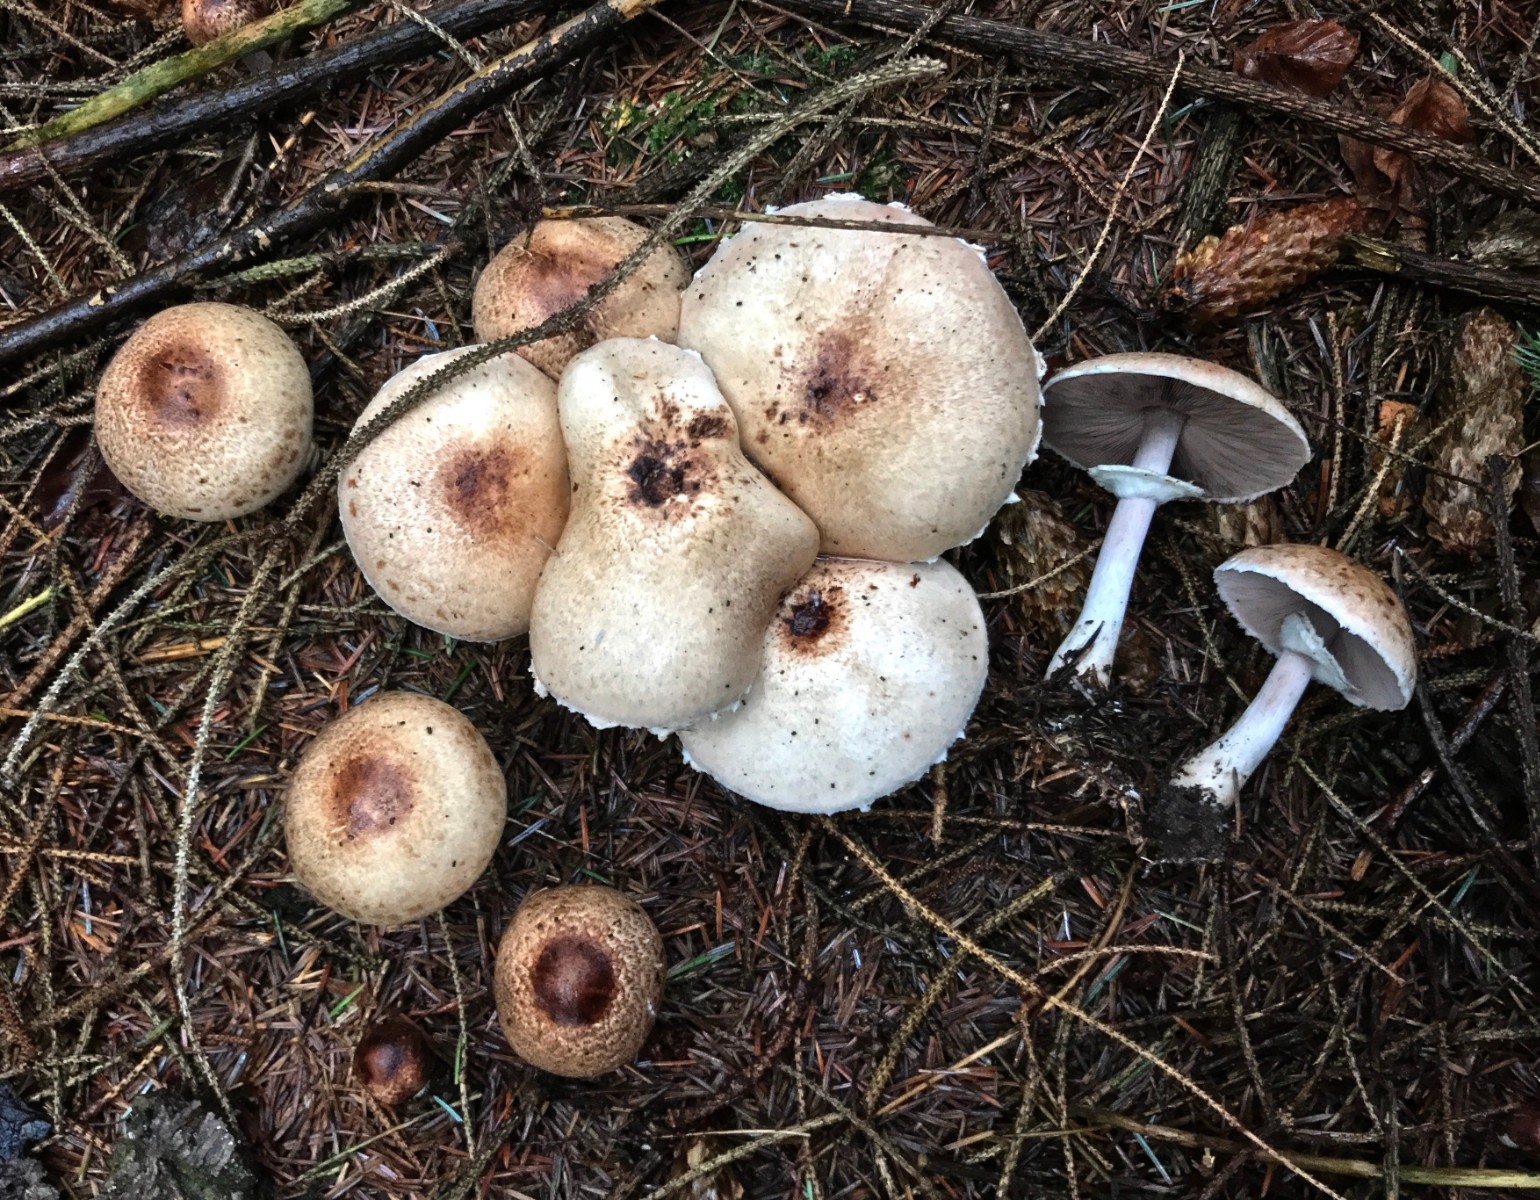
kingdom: Fungi
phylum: Basidiomycota
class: Agaricomycetes
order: Agaricales
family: Agaricaceae
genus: Agaricus
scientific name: Agaricus impudicus
